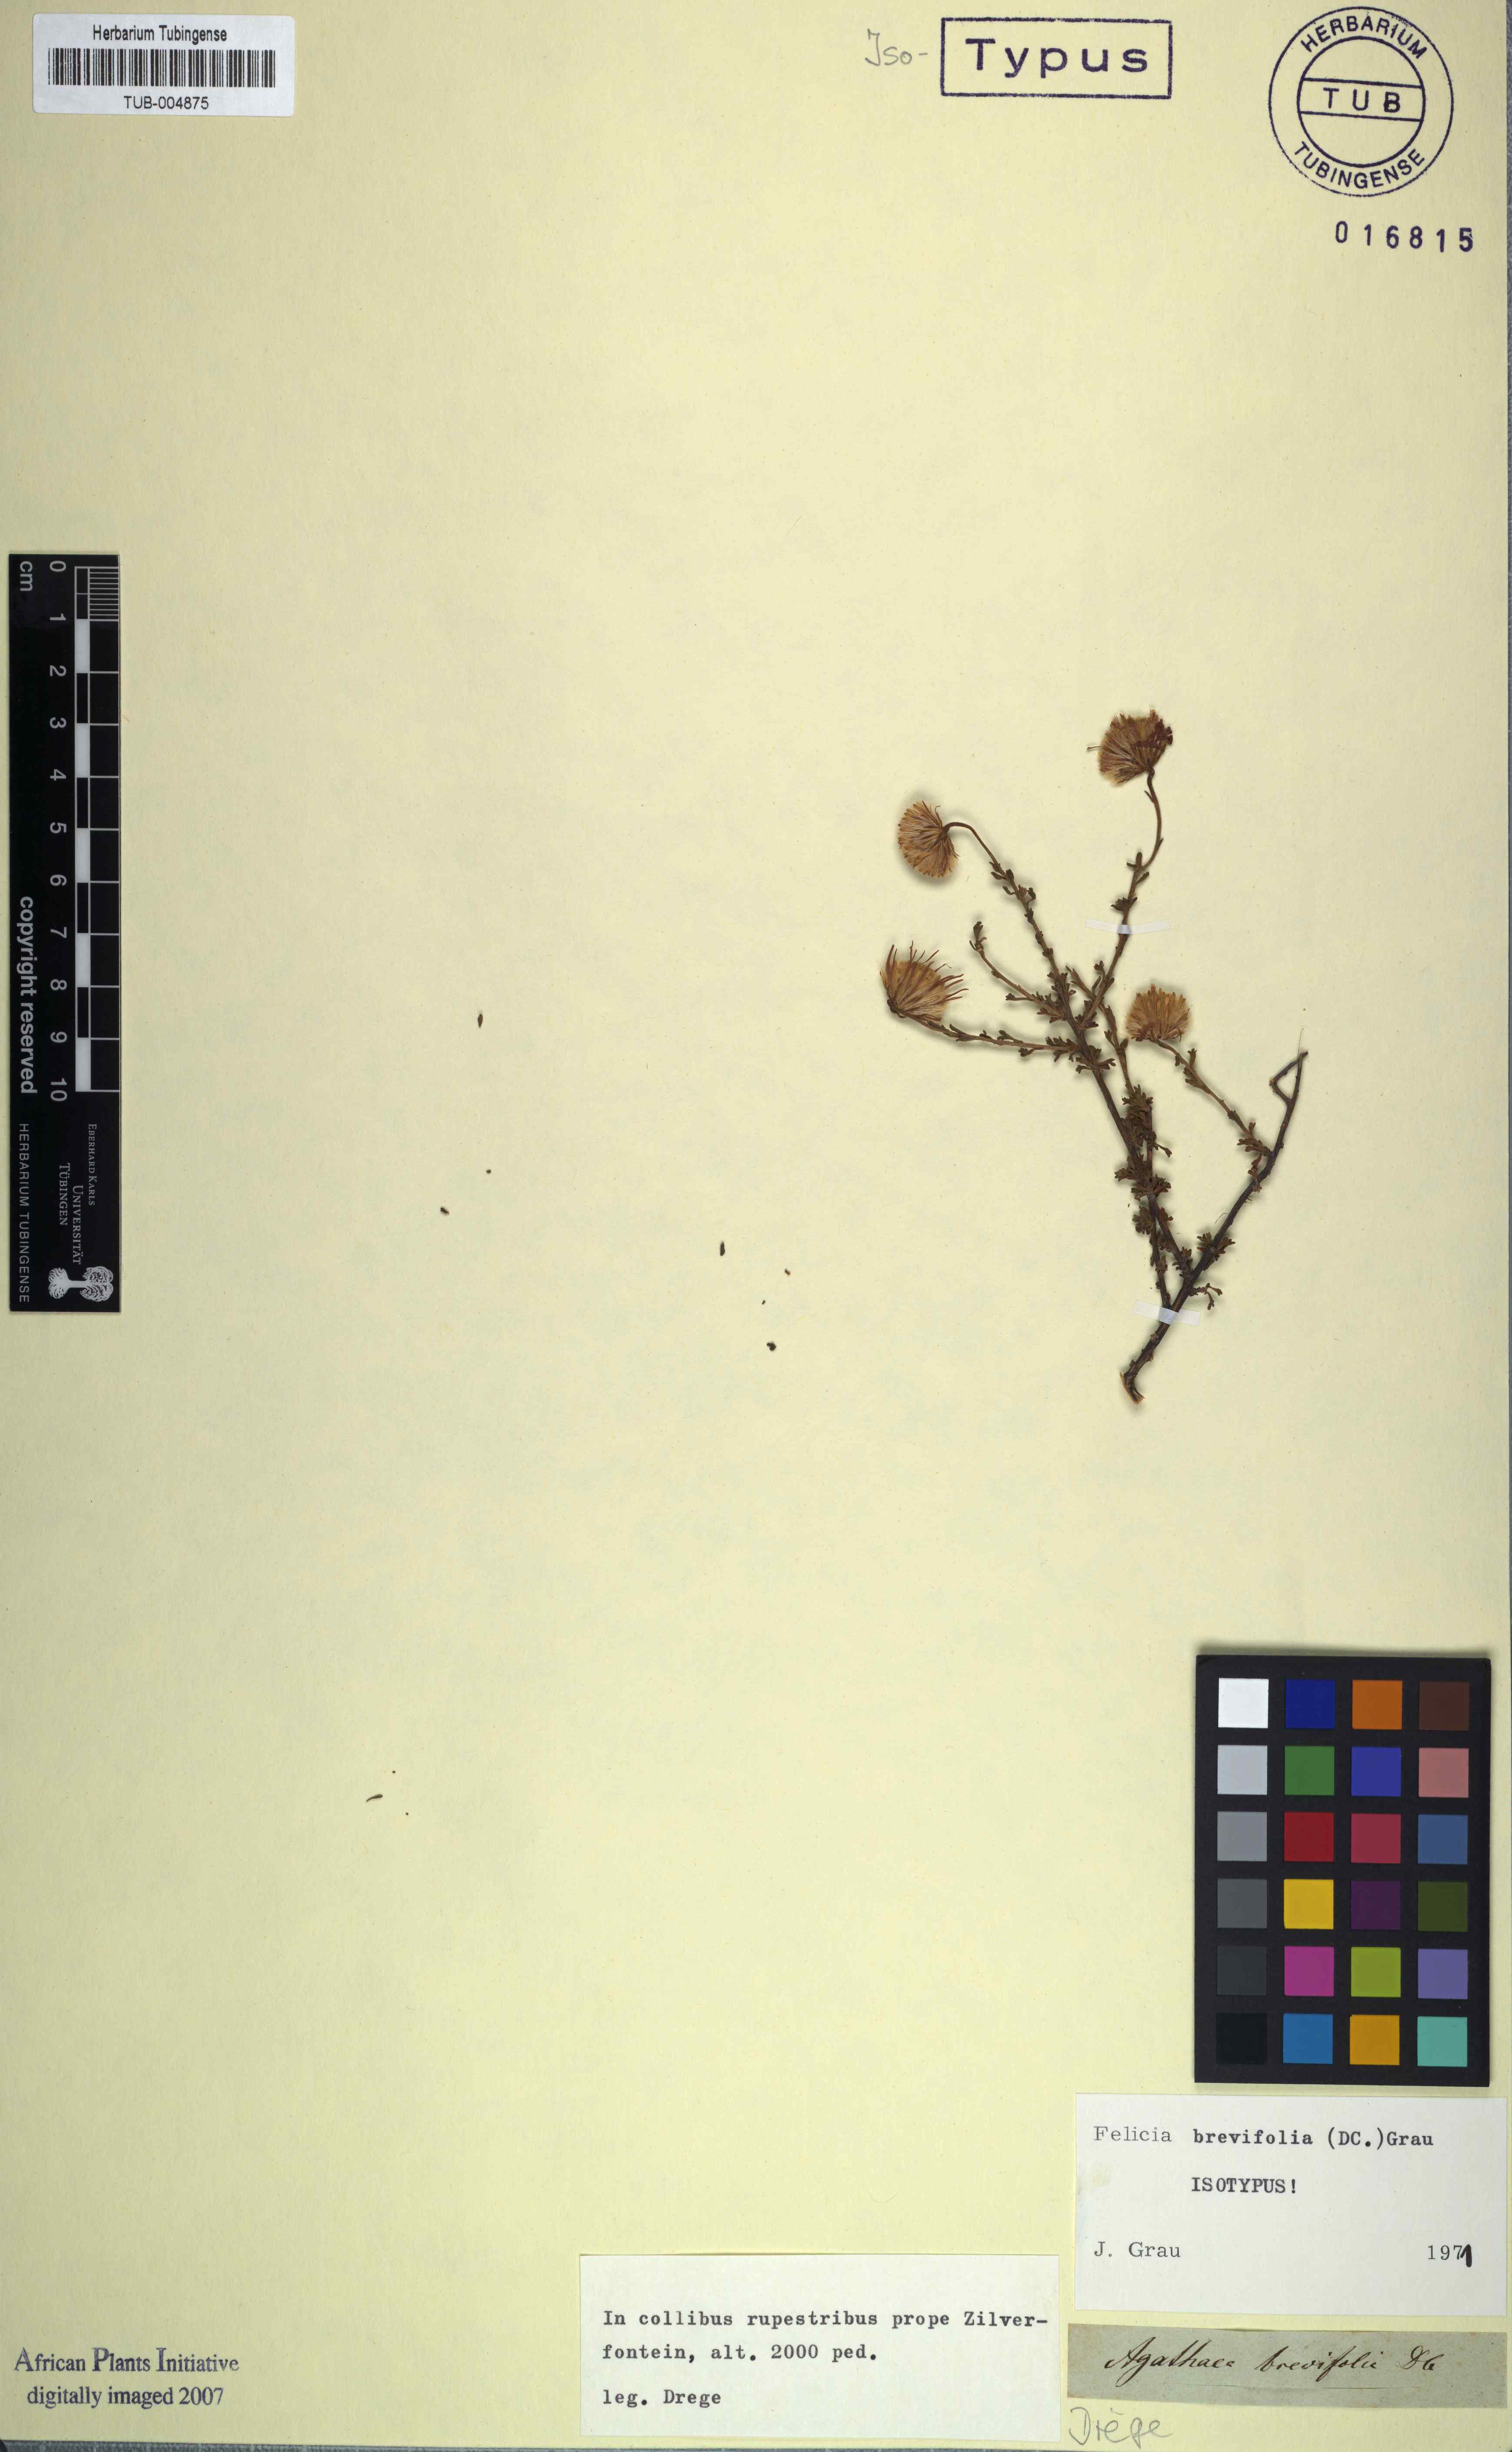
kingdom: Plantae
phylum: Tracheophyta
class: Magnoliopsida
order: Asterales
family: Asteraceae
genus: Felicia
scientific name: Felicia brevifolia
